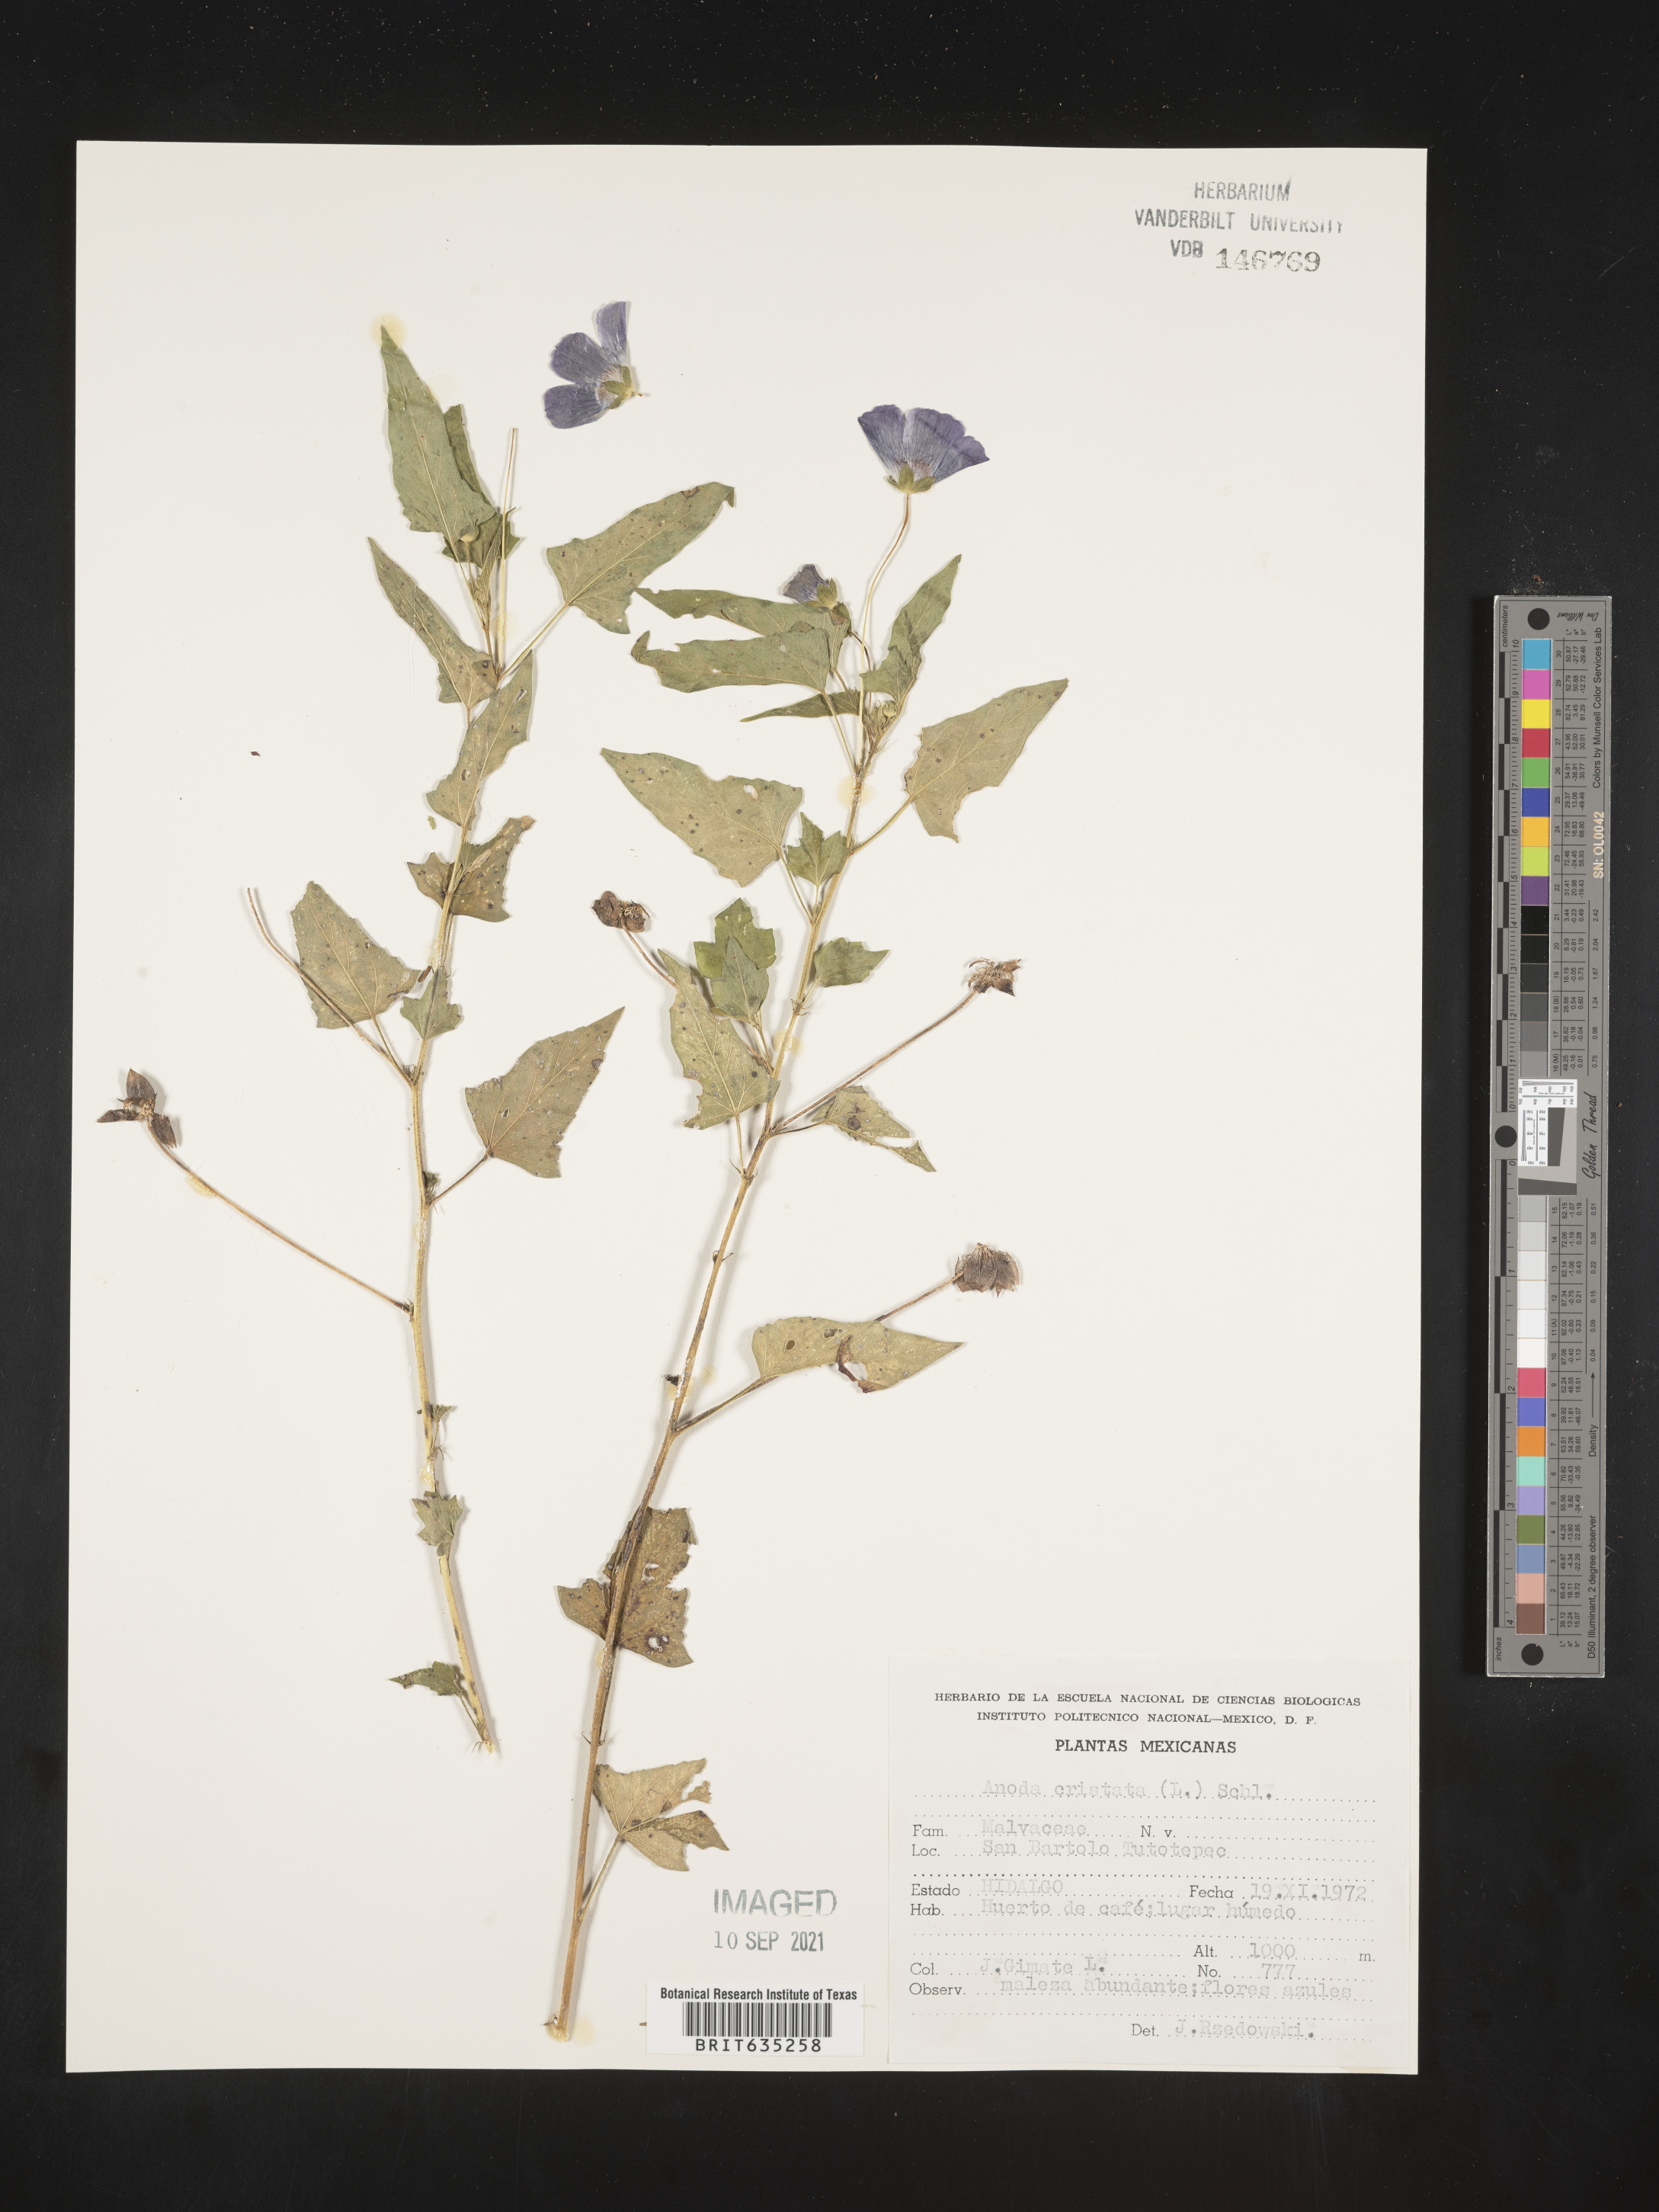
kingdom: Plantae
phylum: Tracheophyta
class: Magnoliopsida
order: Malvales
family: Malvaceae
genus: Anoda
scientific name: Anoda
